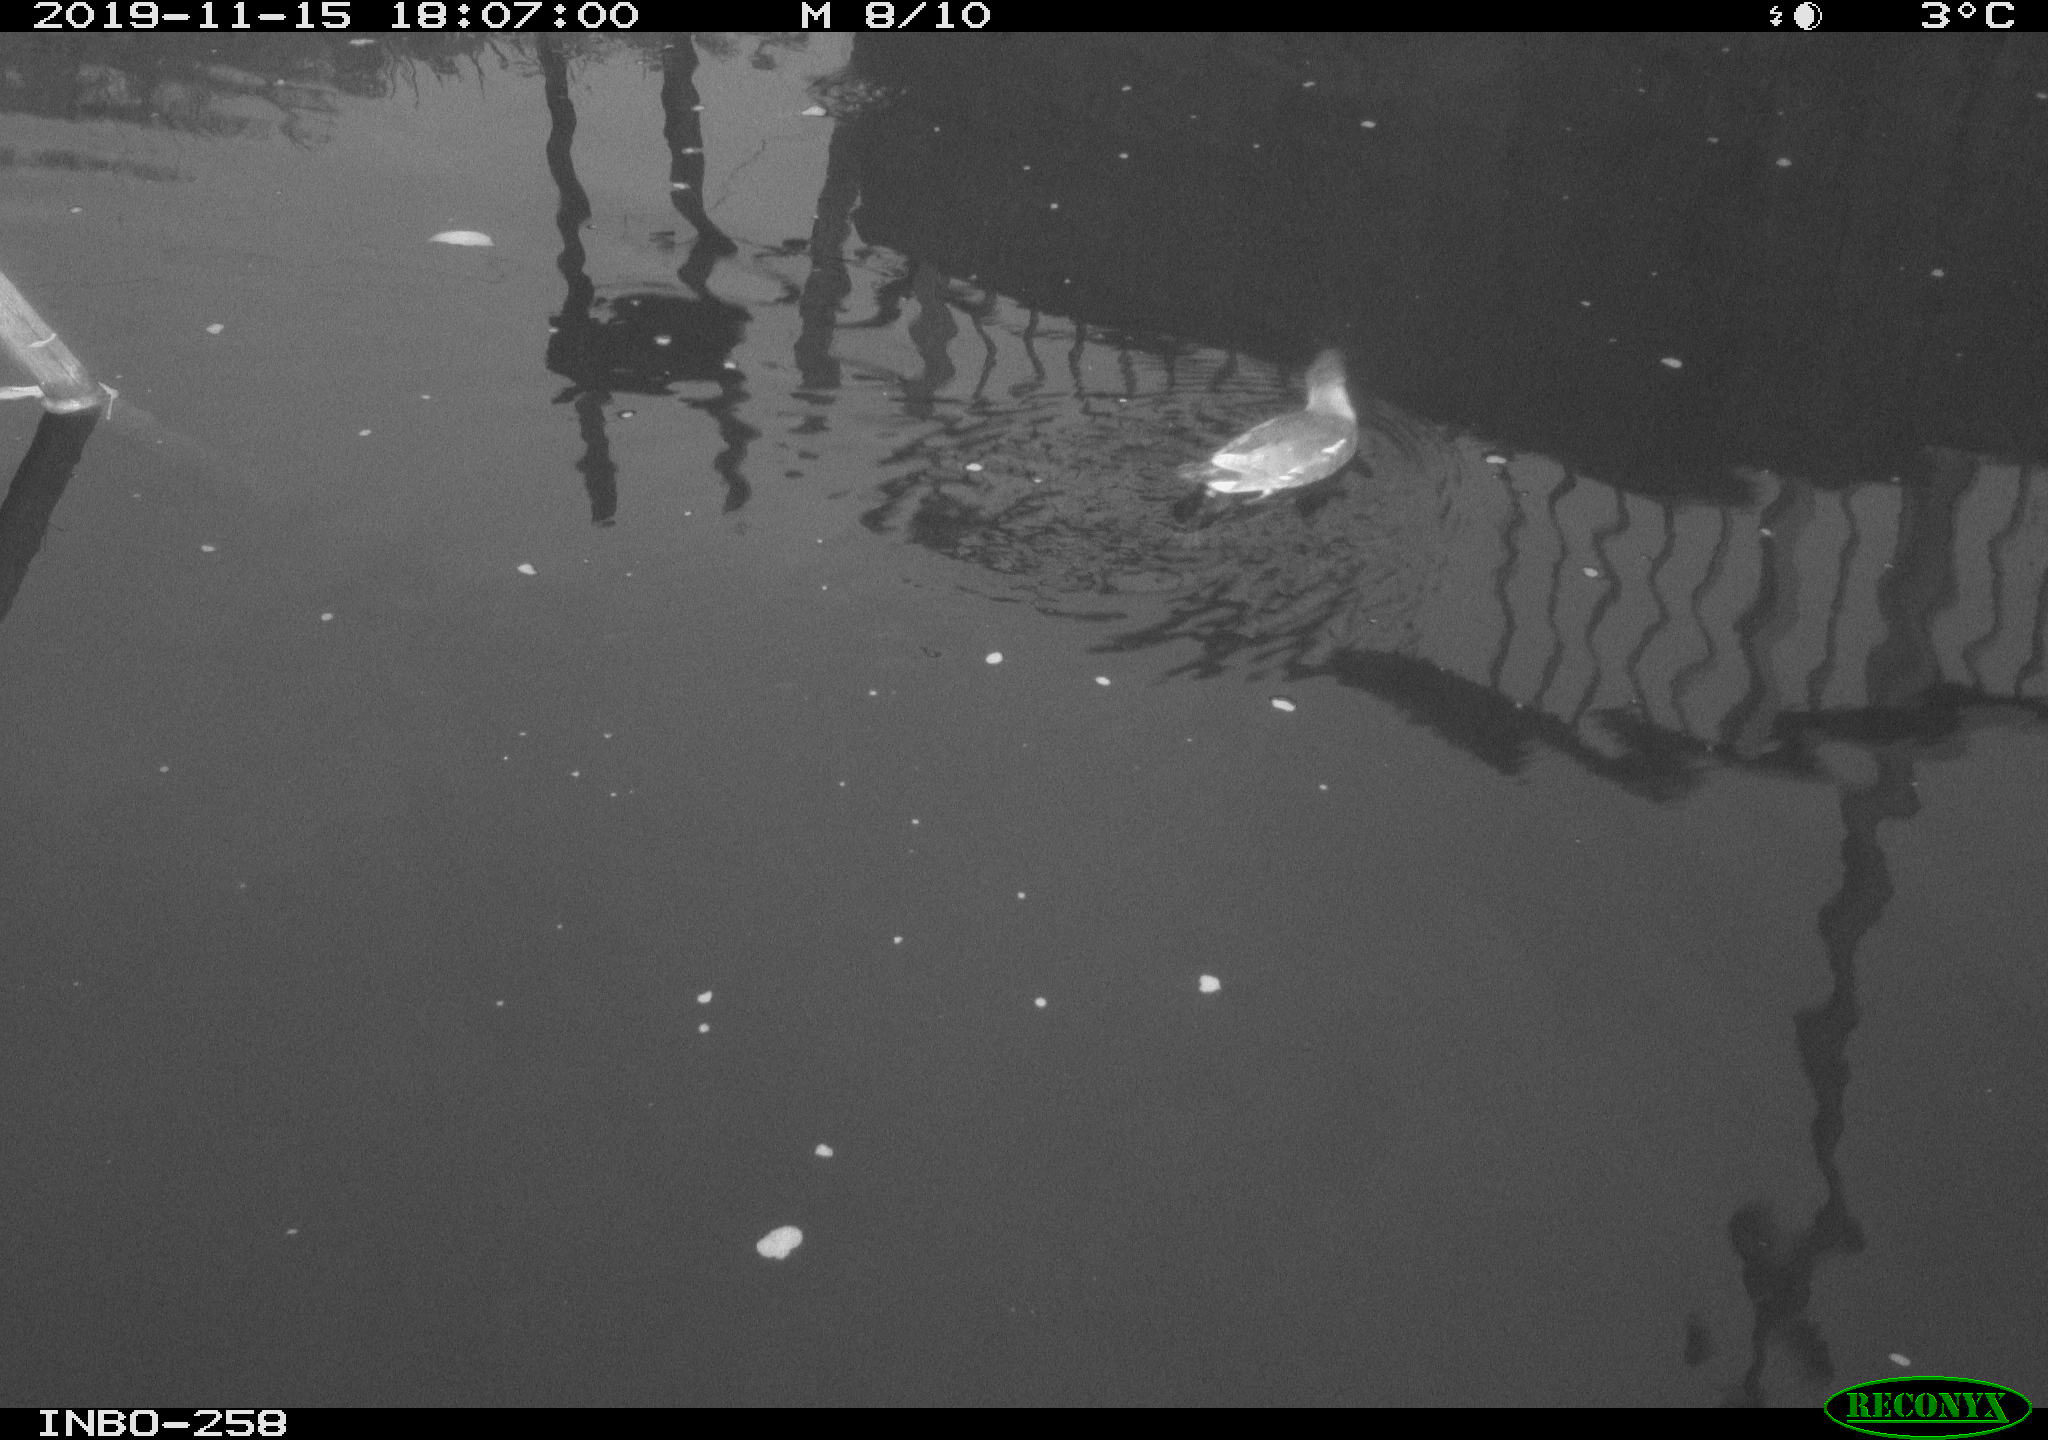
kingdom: Animalia
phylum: Chordata
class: Aves
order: Gruiformes
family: Rallidae
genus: Gallinula
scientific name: Gallinula chloropus
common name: Common moorhen
